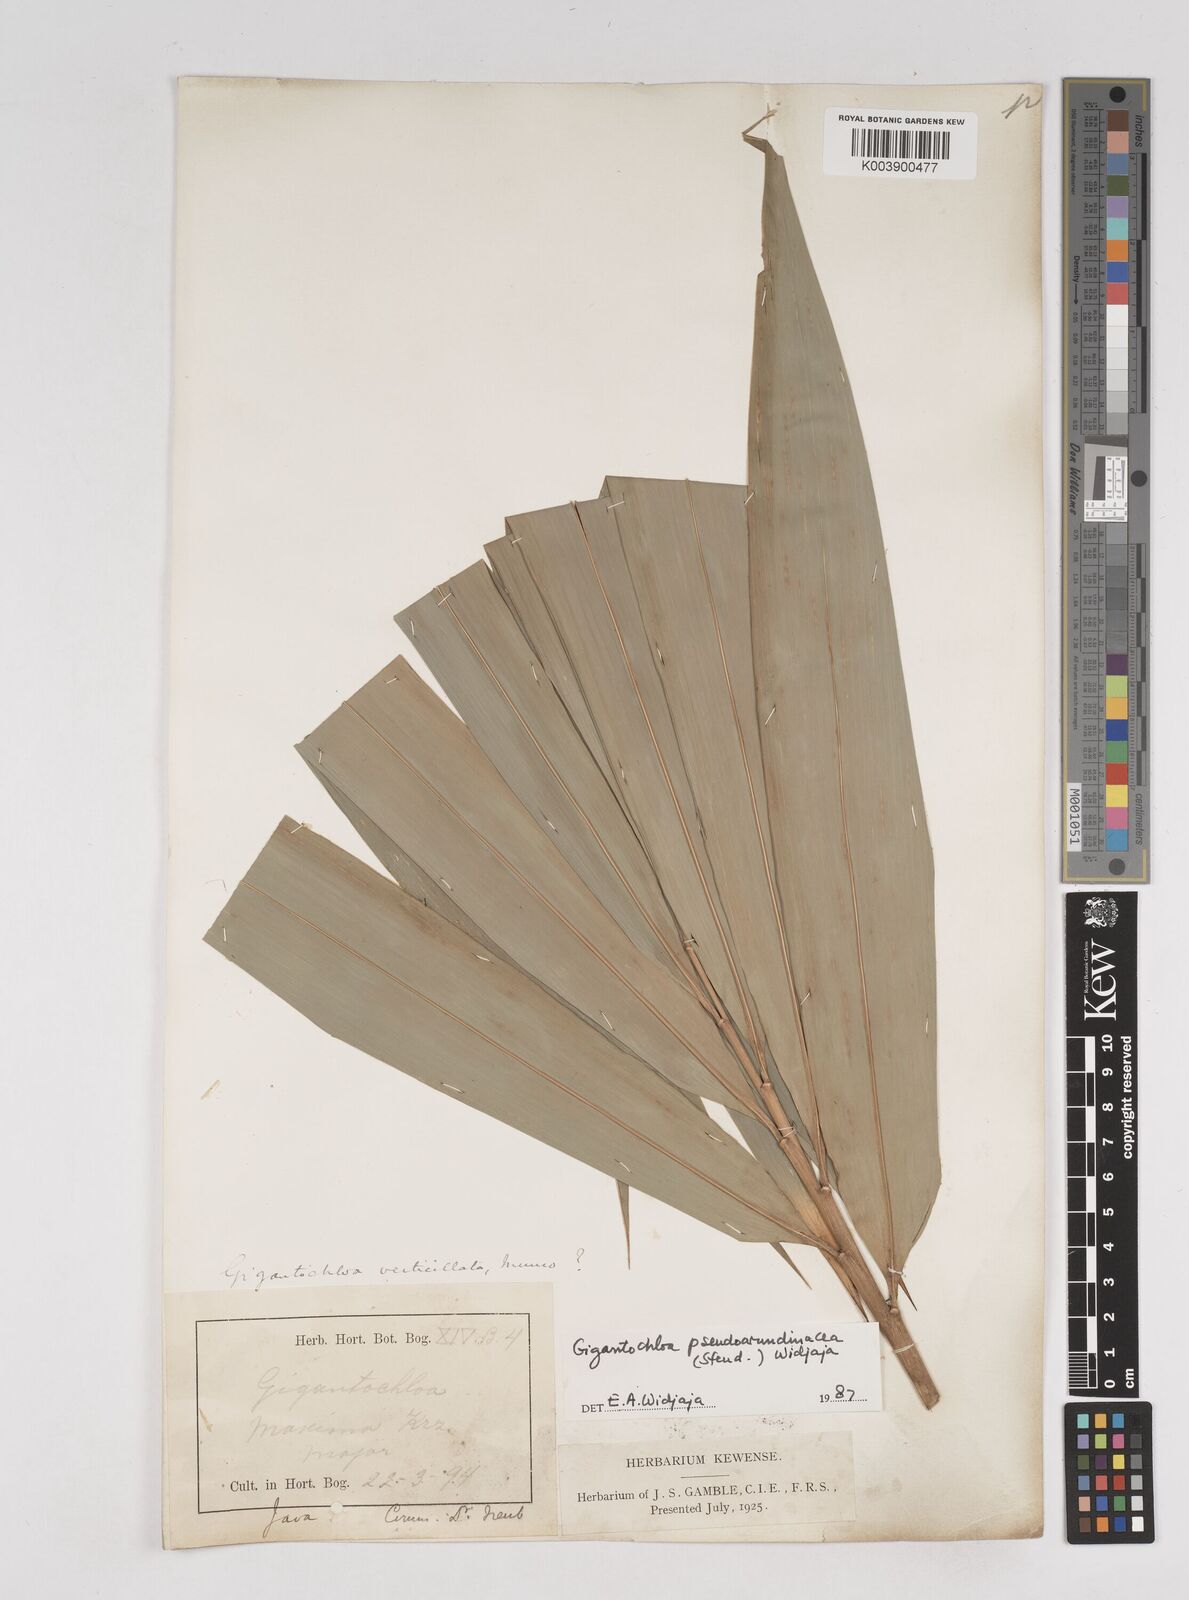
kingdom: Plantae
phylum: Tracheophyta
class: Liliopsida
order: Poales
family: Poaceae
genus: Gigantochloa
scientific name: Gigantochloa verticillata
